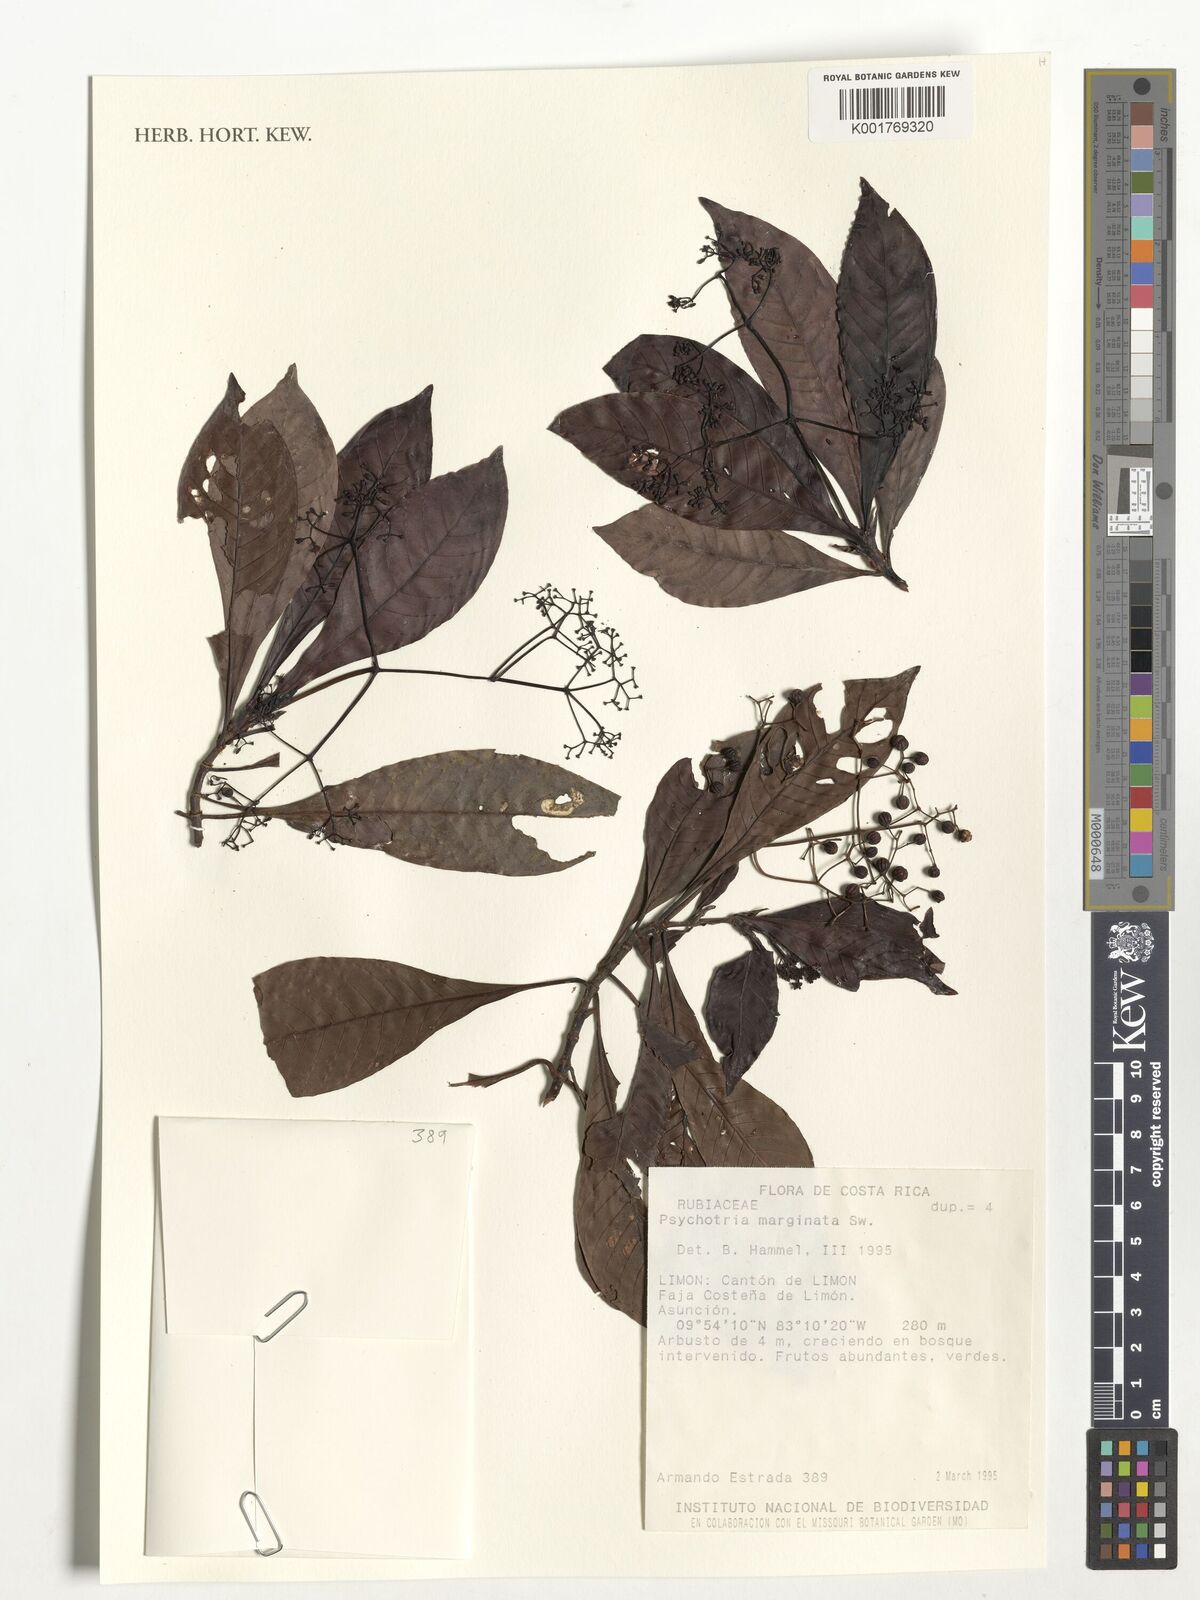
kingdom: Plantae
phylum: Tracheophyta
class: Magnoliopsida
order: Gentianales
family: Rubiaceae
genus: Psychotria
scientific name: Psychotria marginata
